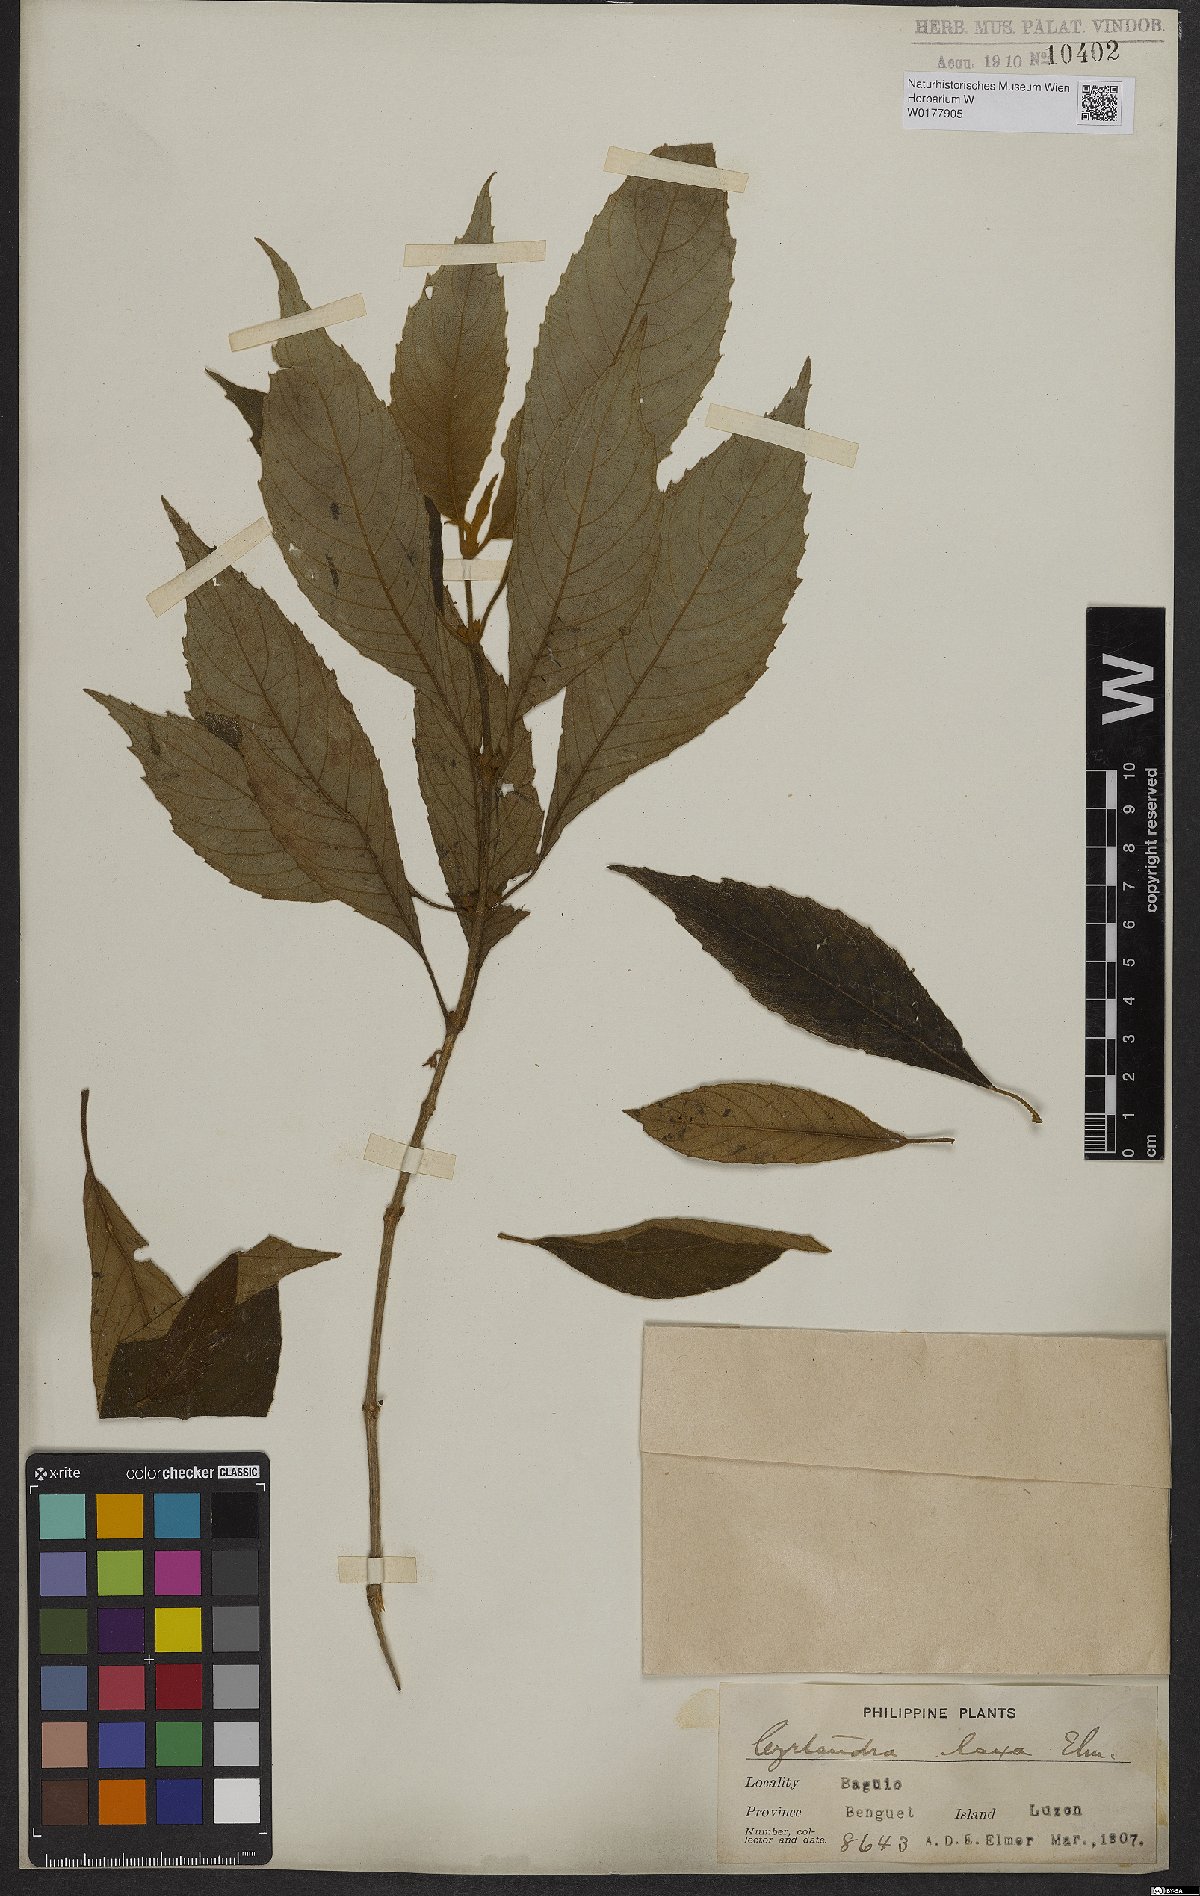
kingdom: Plantae
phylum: Tracheophyta
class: Magnoliopsida
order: Lamiales
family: Gesneriaceae
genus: Cyrtandra
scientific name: Cyrtandra
